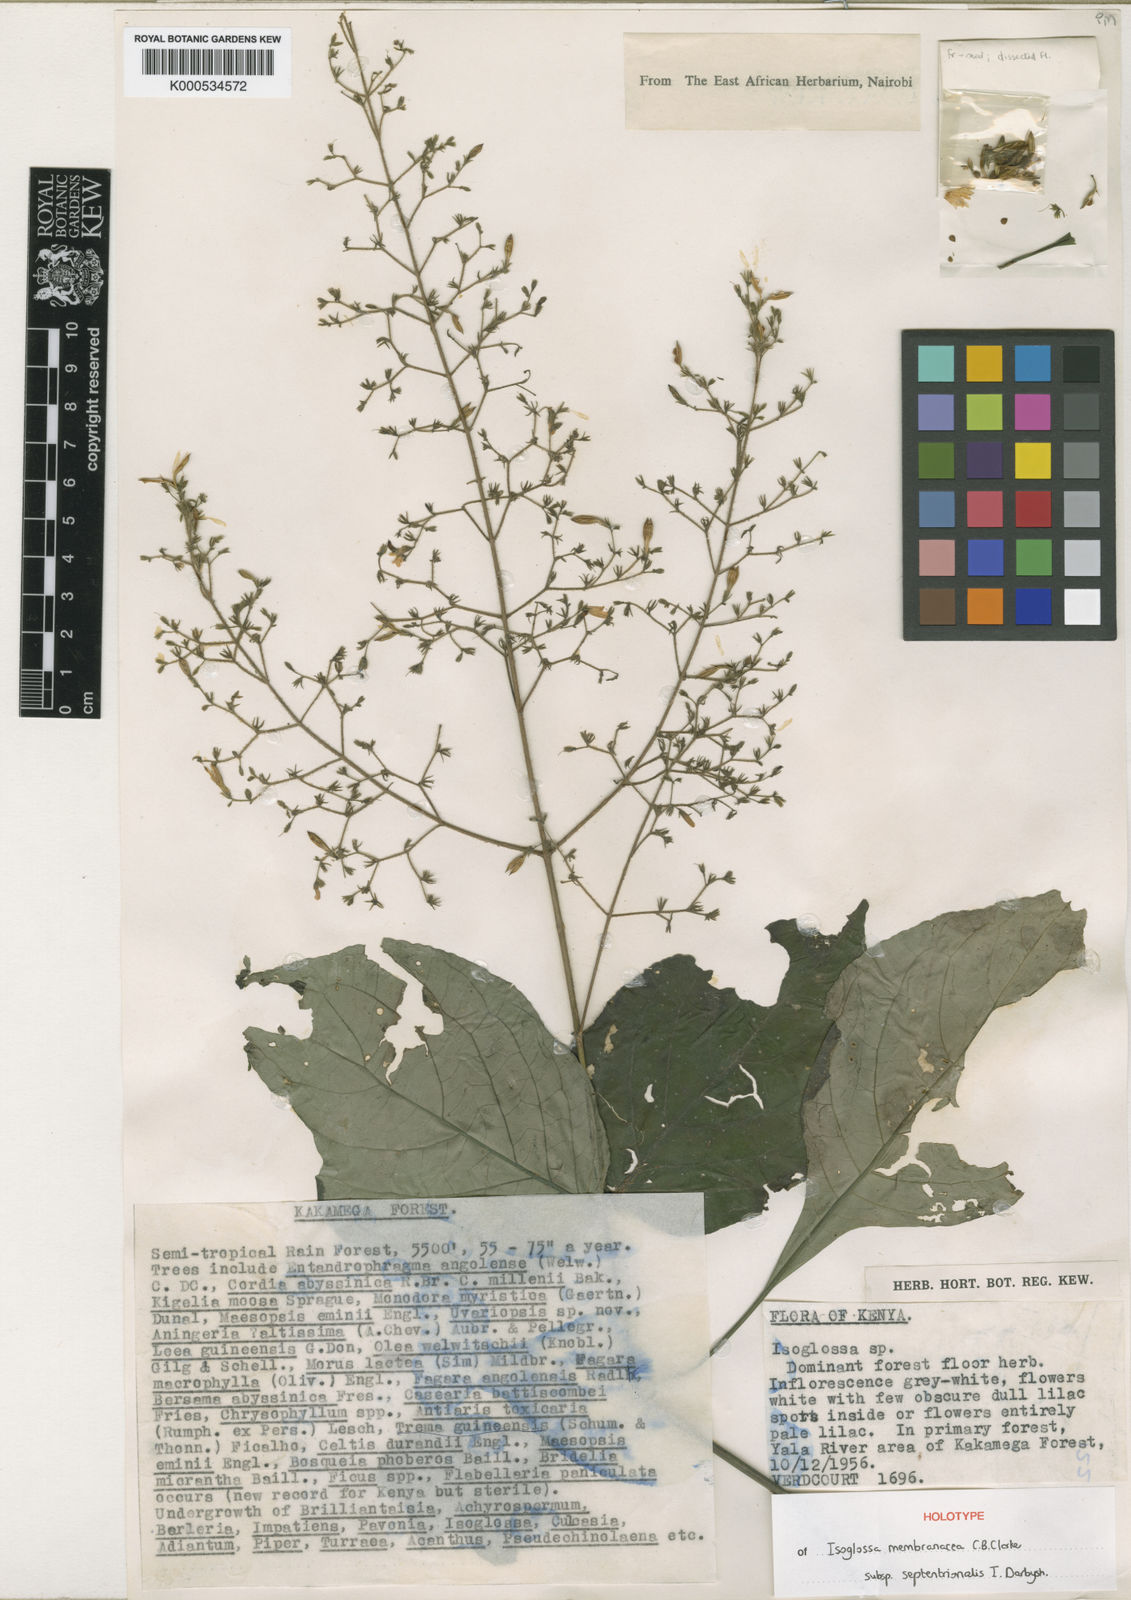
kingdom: Plantae
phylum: Tracheophyta
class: Magnoliopsida
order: Lamiales
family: Acanthaceae
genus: Isoglossa
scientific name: Isoglossa membranacea
